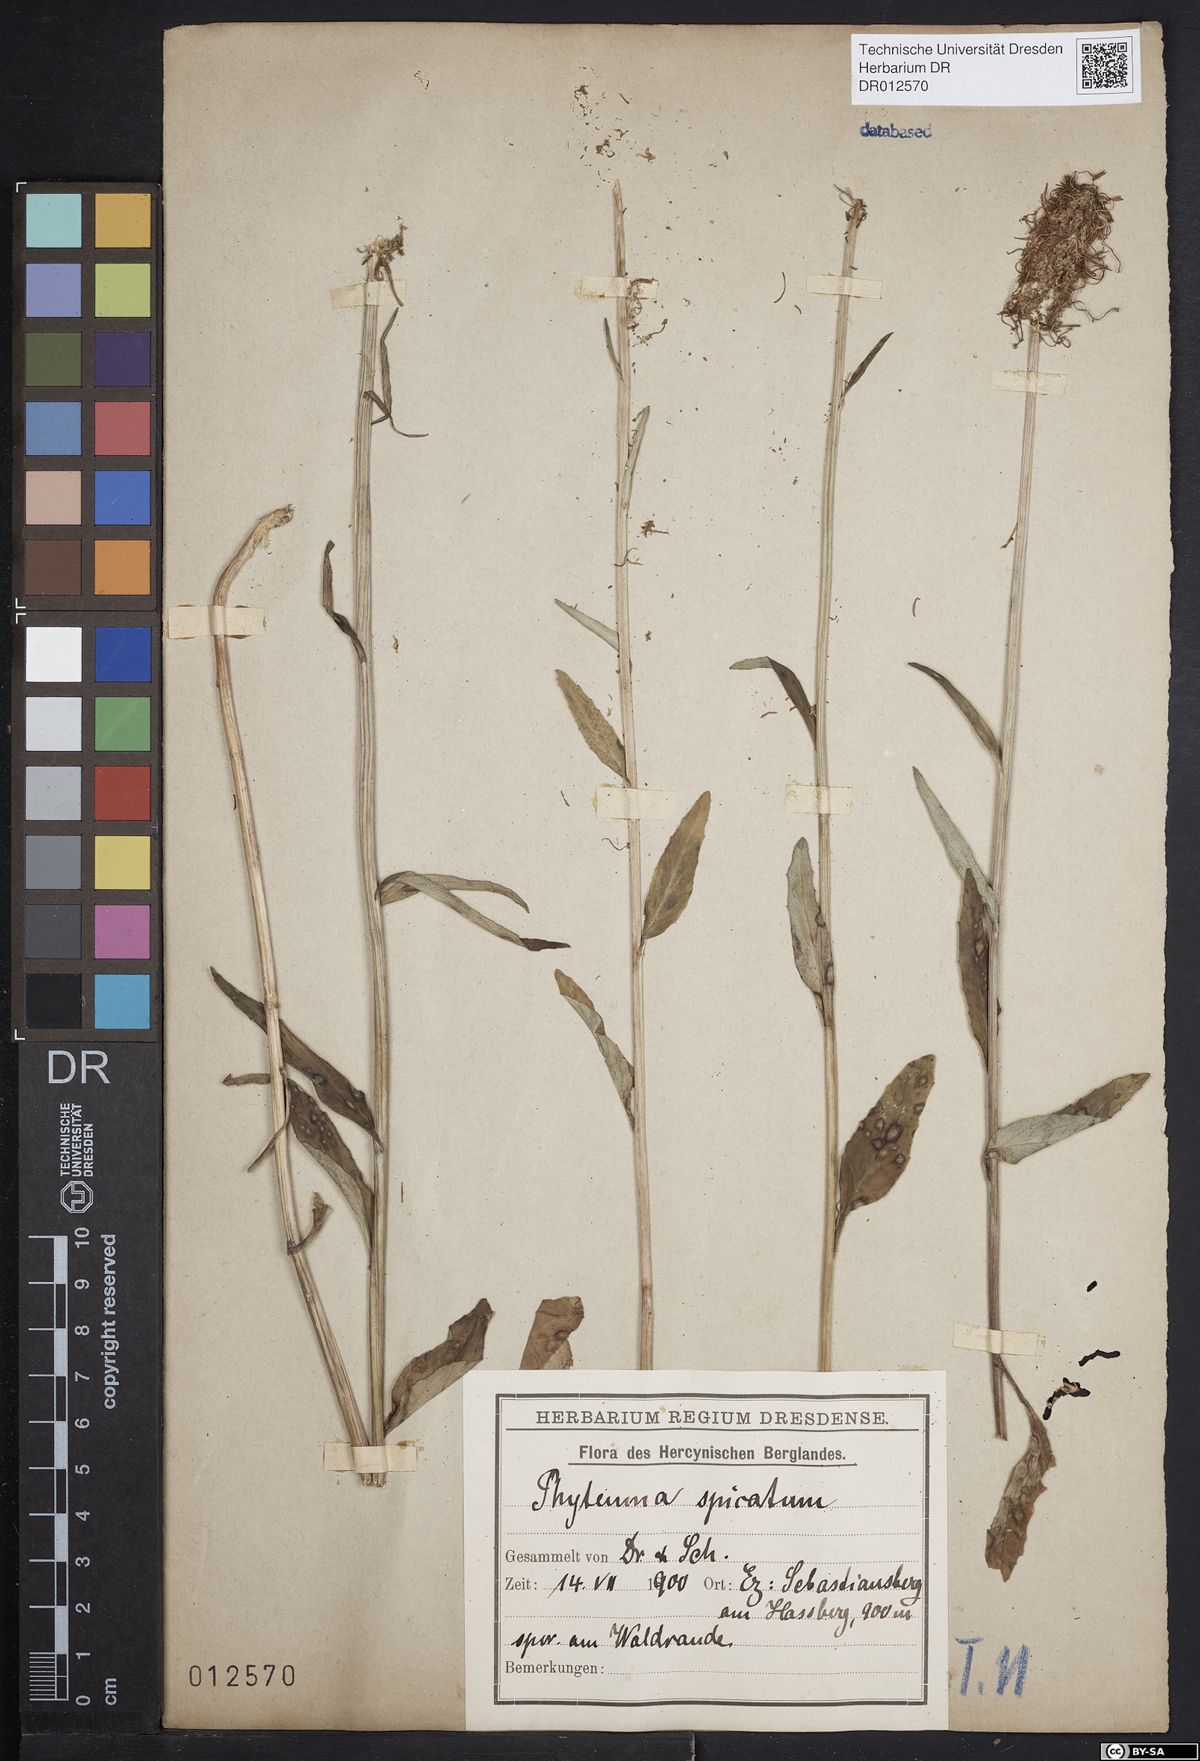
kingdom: Plantae
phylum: Tracheophyta
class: Magnoliopsida
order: Asterales
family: Campanulaceae
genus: Phyteuma
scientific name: Phyteuma spicatum
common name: Spiked rampion
